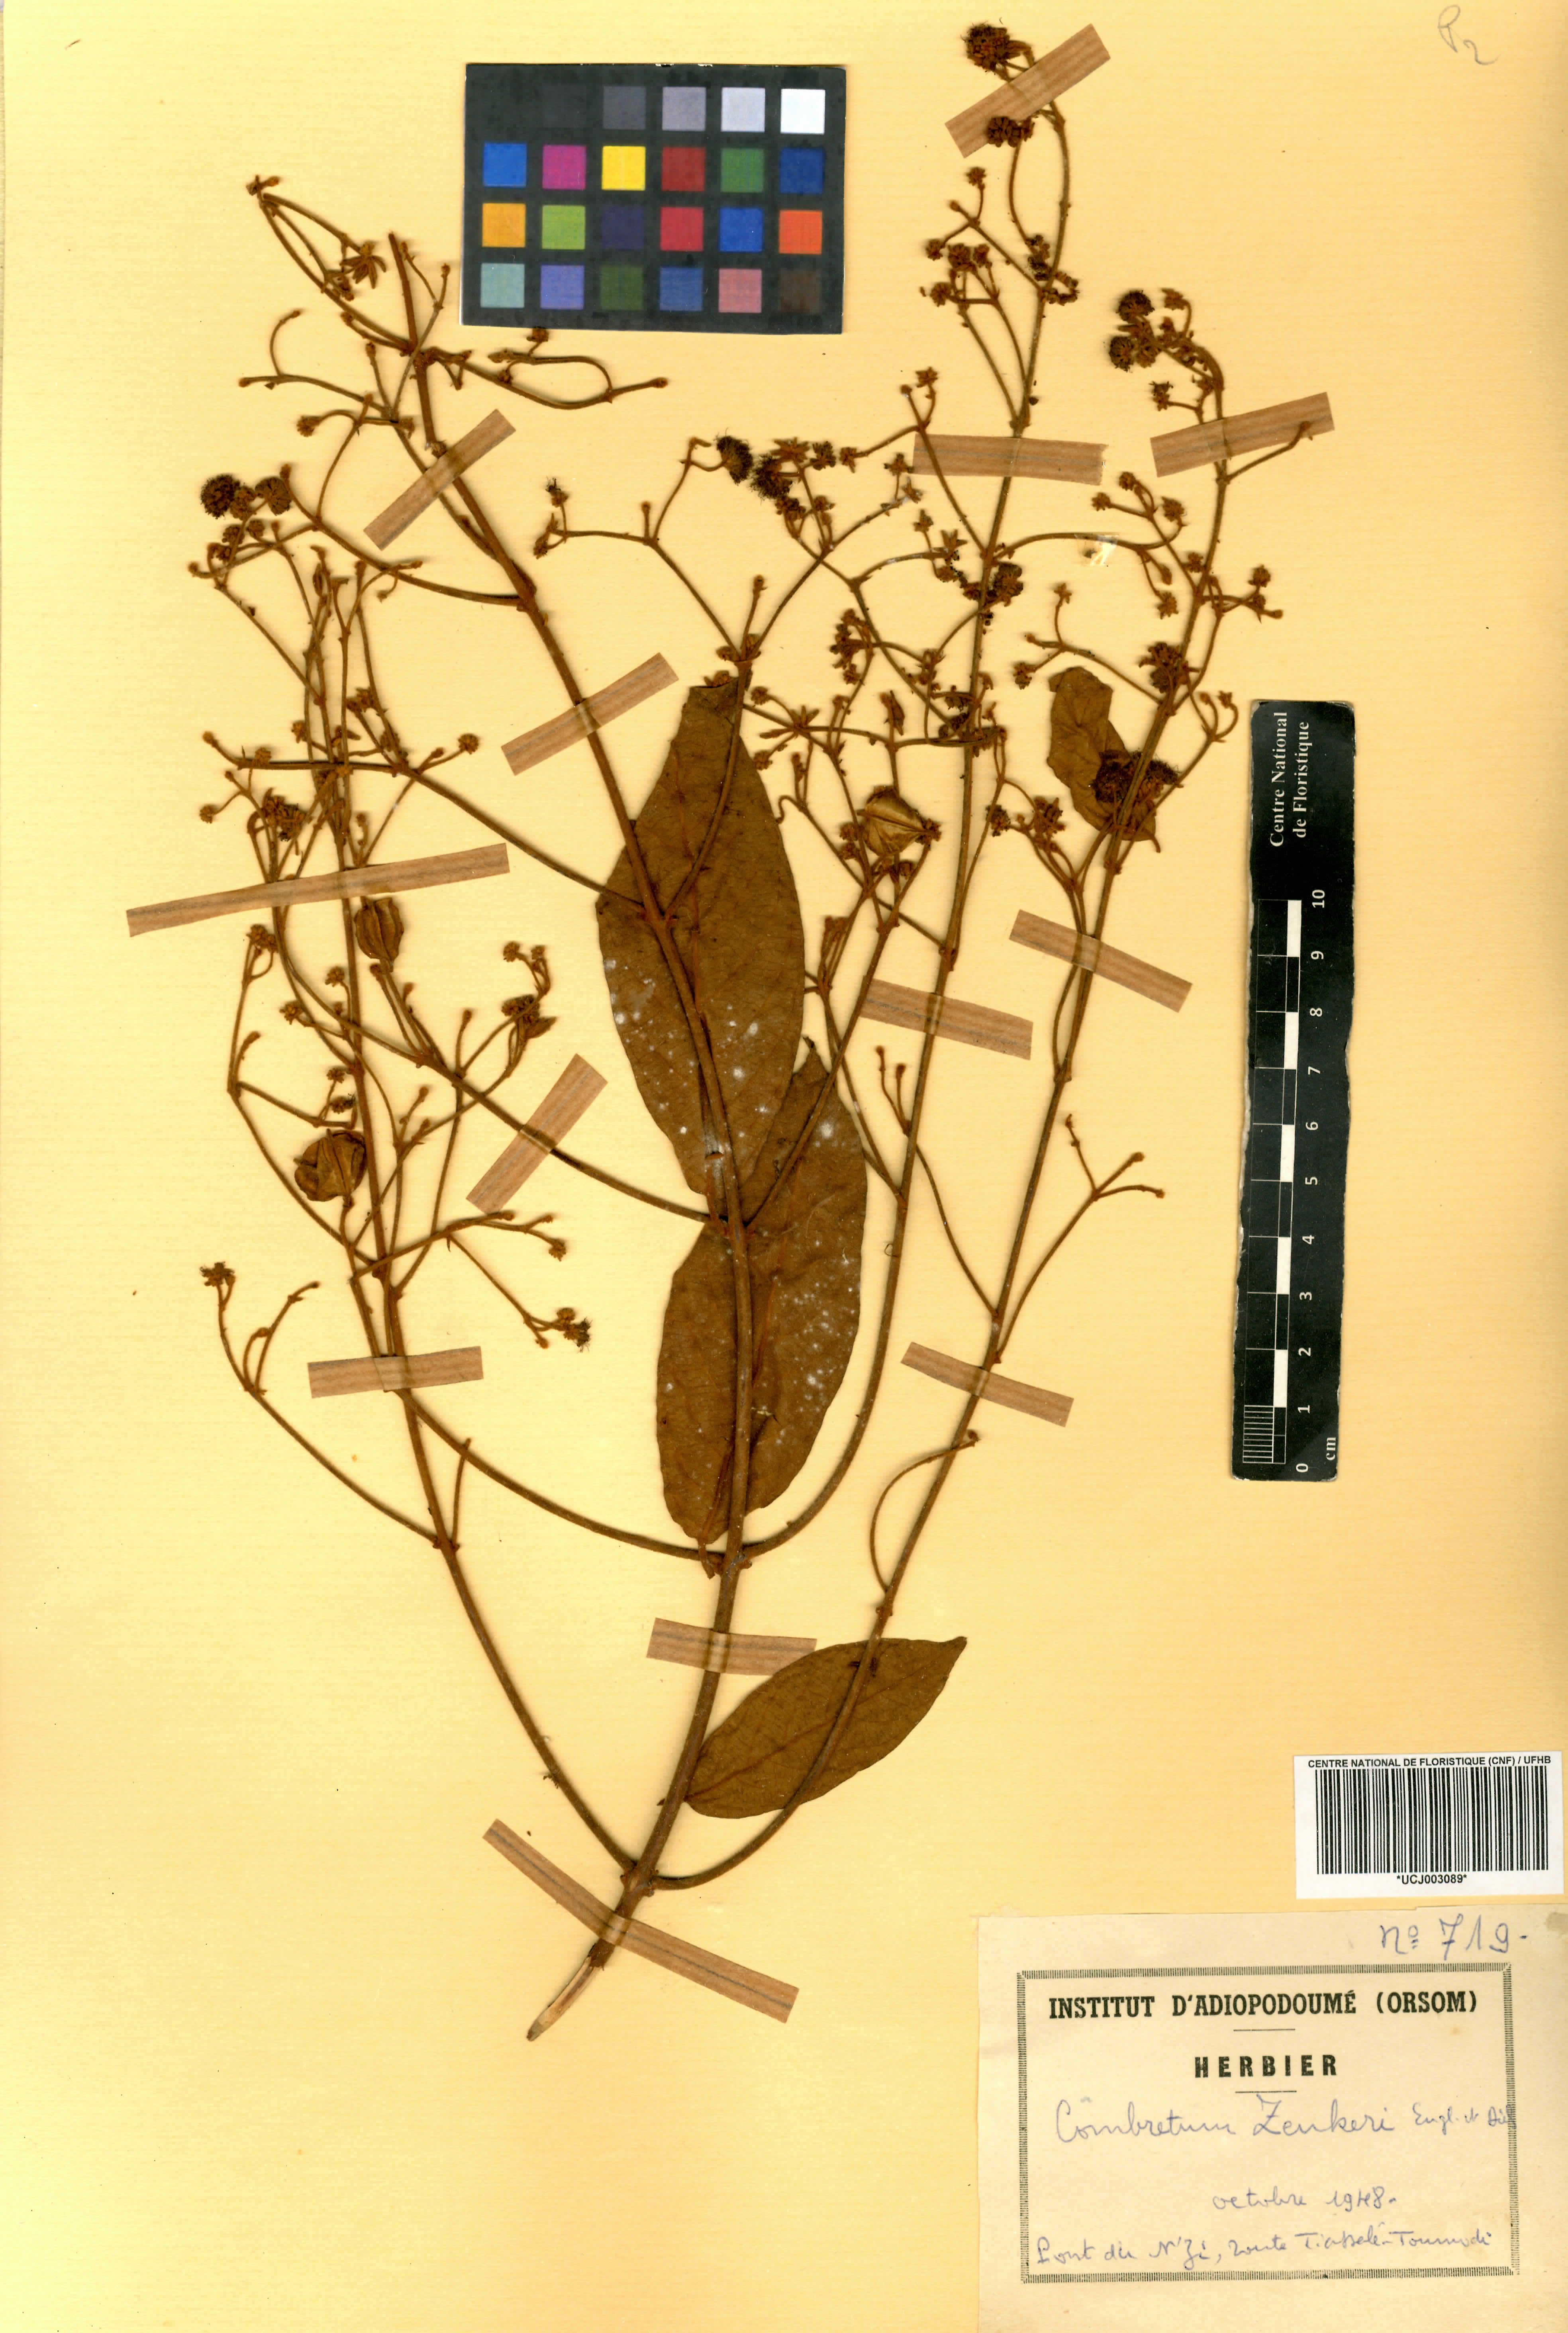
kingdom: Plantae
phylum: Tracheophyta
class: Magnoliopsida
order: Myrtales
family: Combretaceae
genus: Combretum
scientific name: Combretum zenkeri
